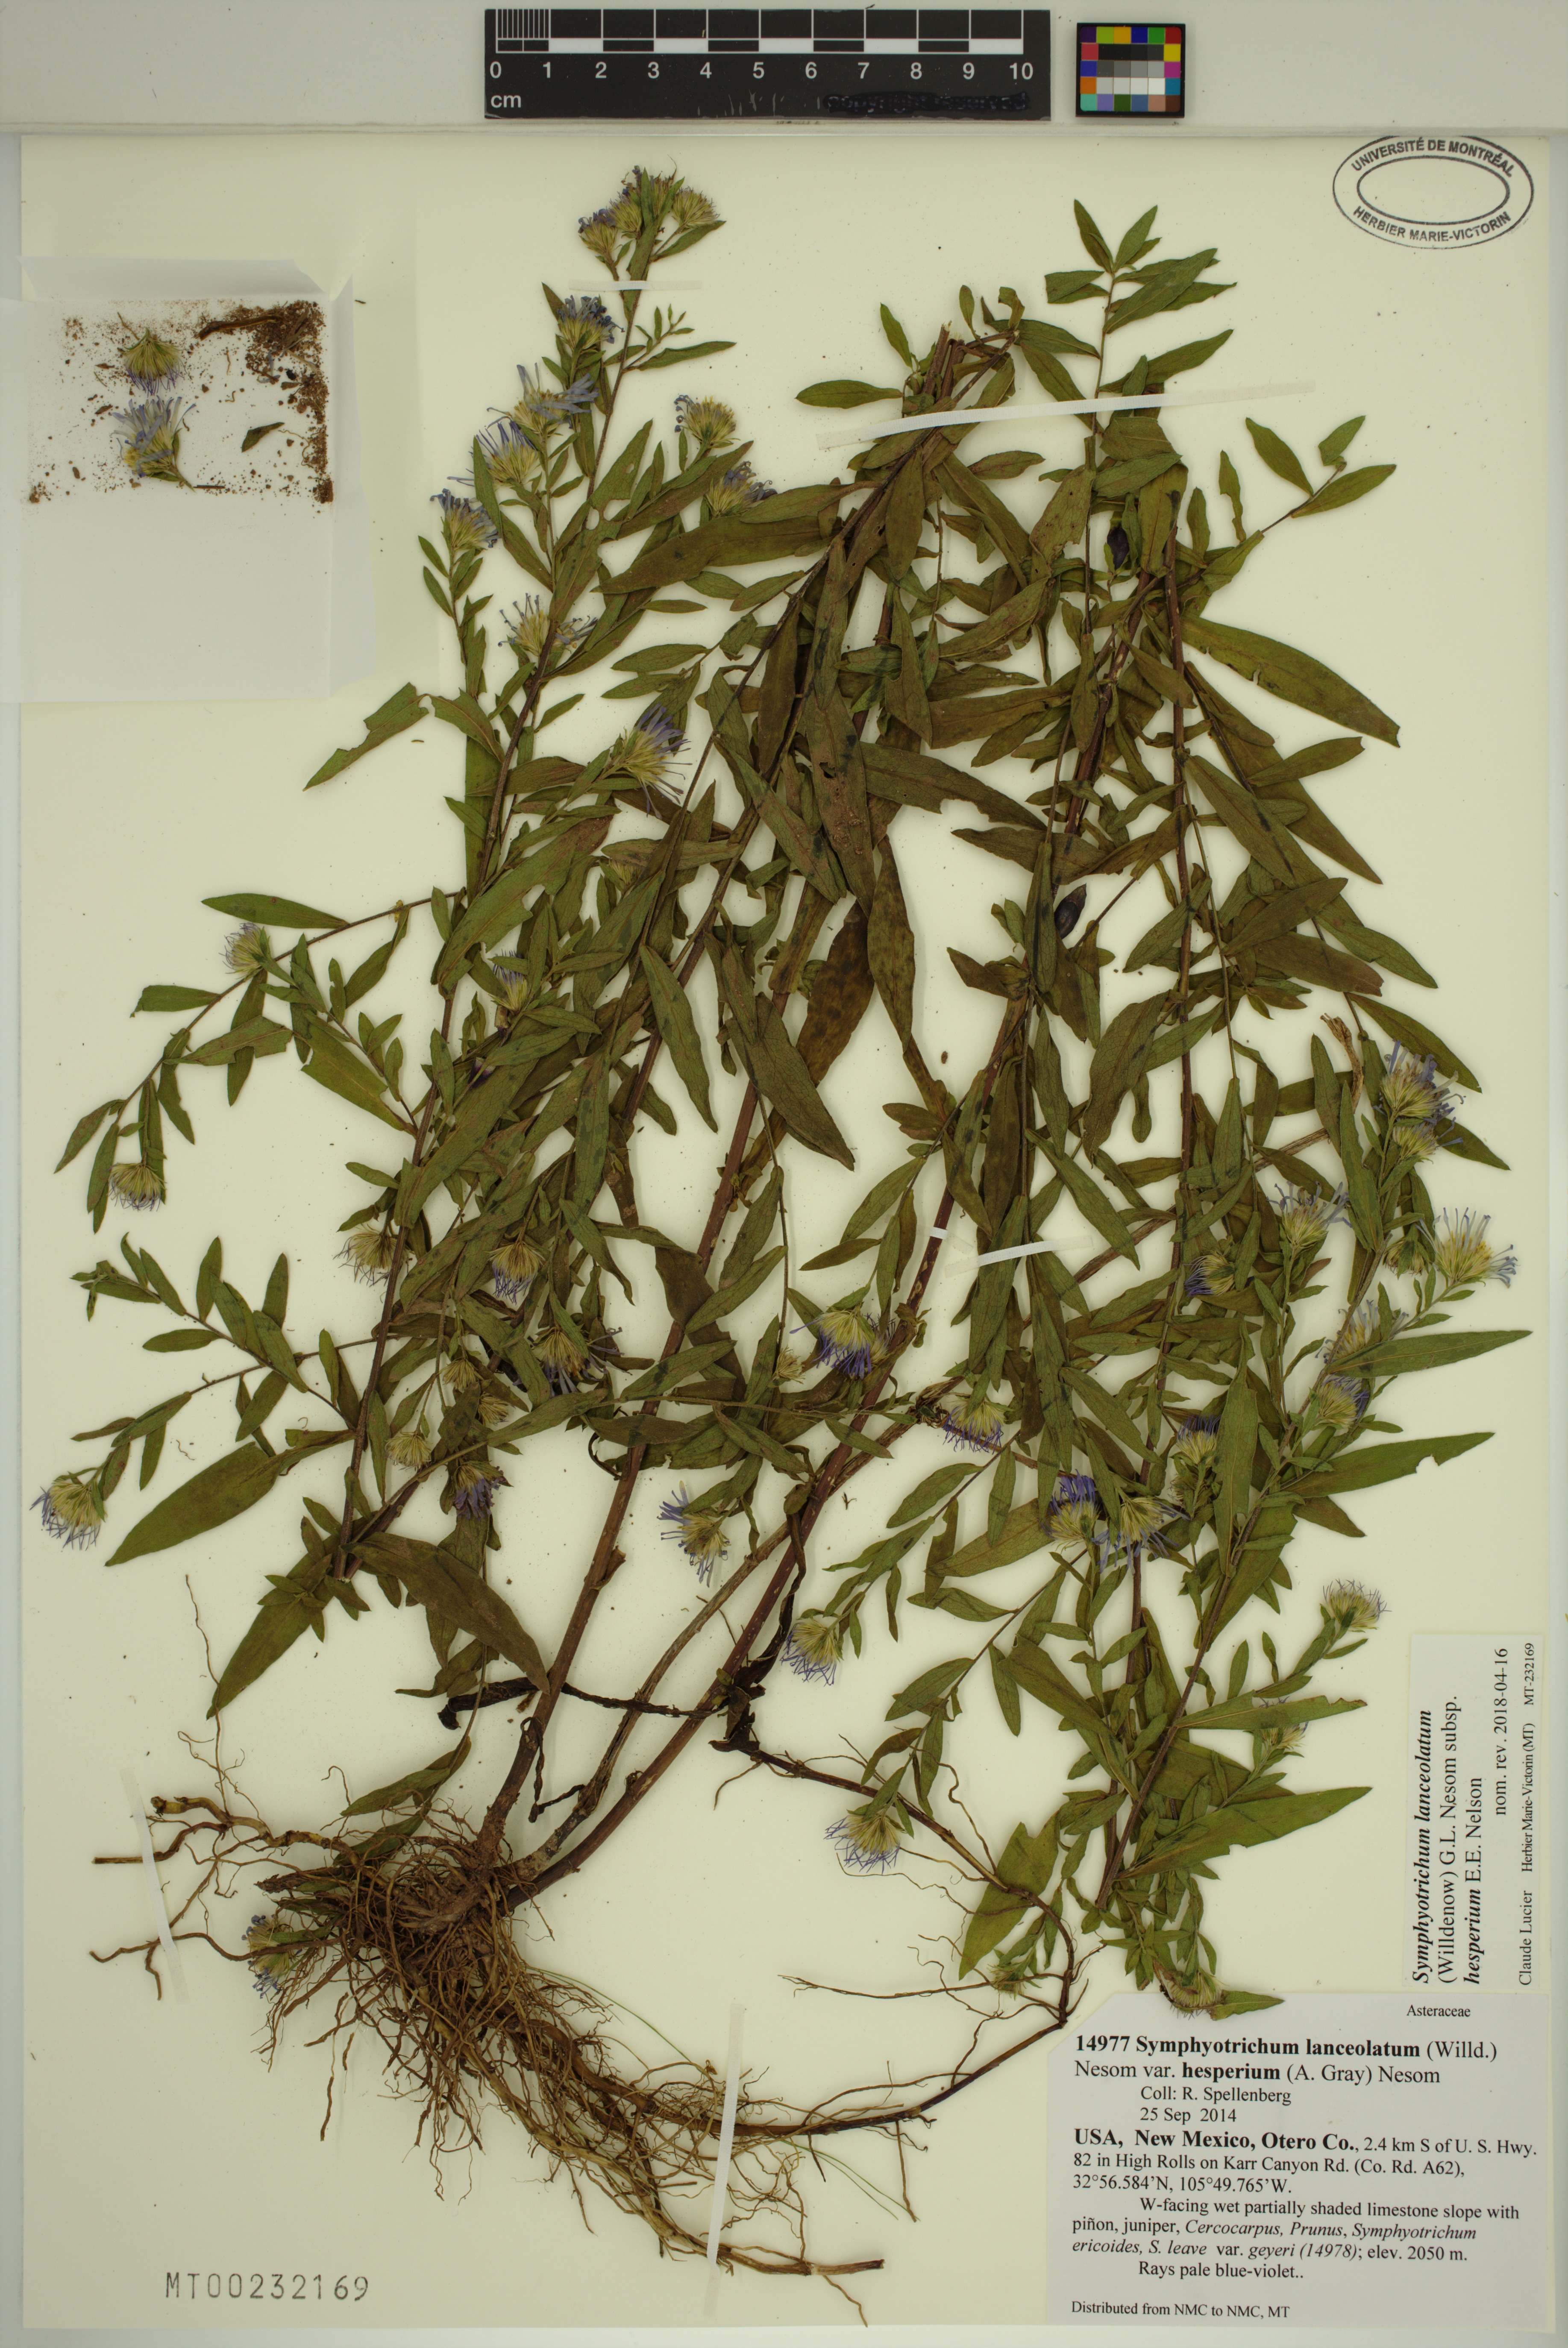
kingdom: Plantae
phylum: Tracheophyta
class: Magnoliopsida
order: Asterales
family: Asteraceae
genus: Symphyotrichum
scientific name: Symphyotrichum lanceolatum
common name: Panicled aster
